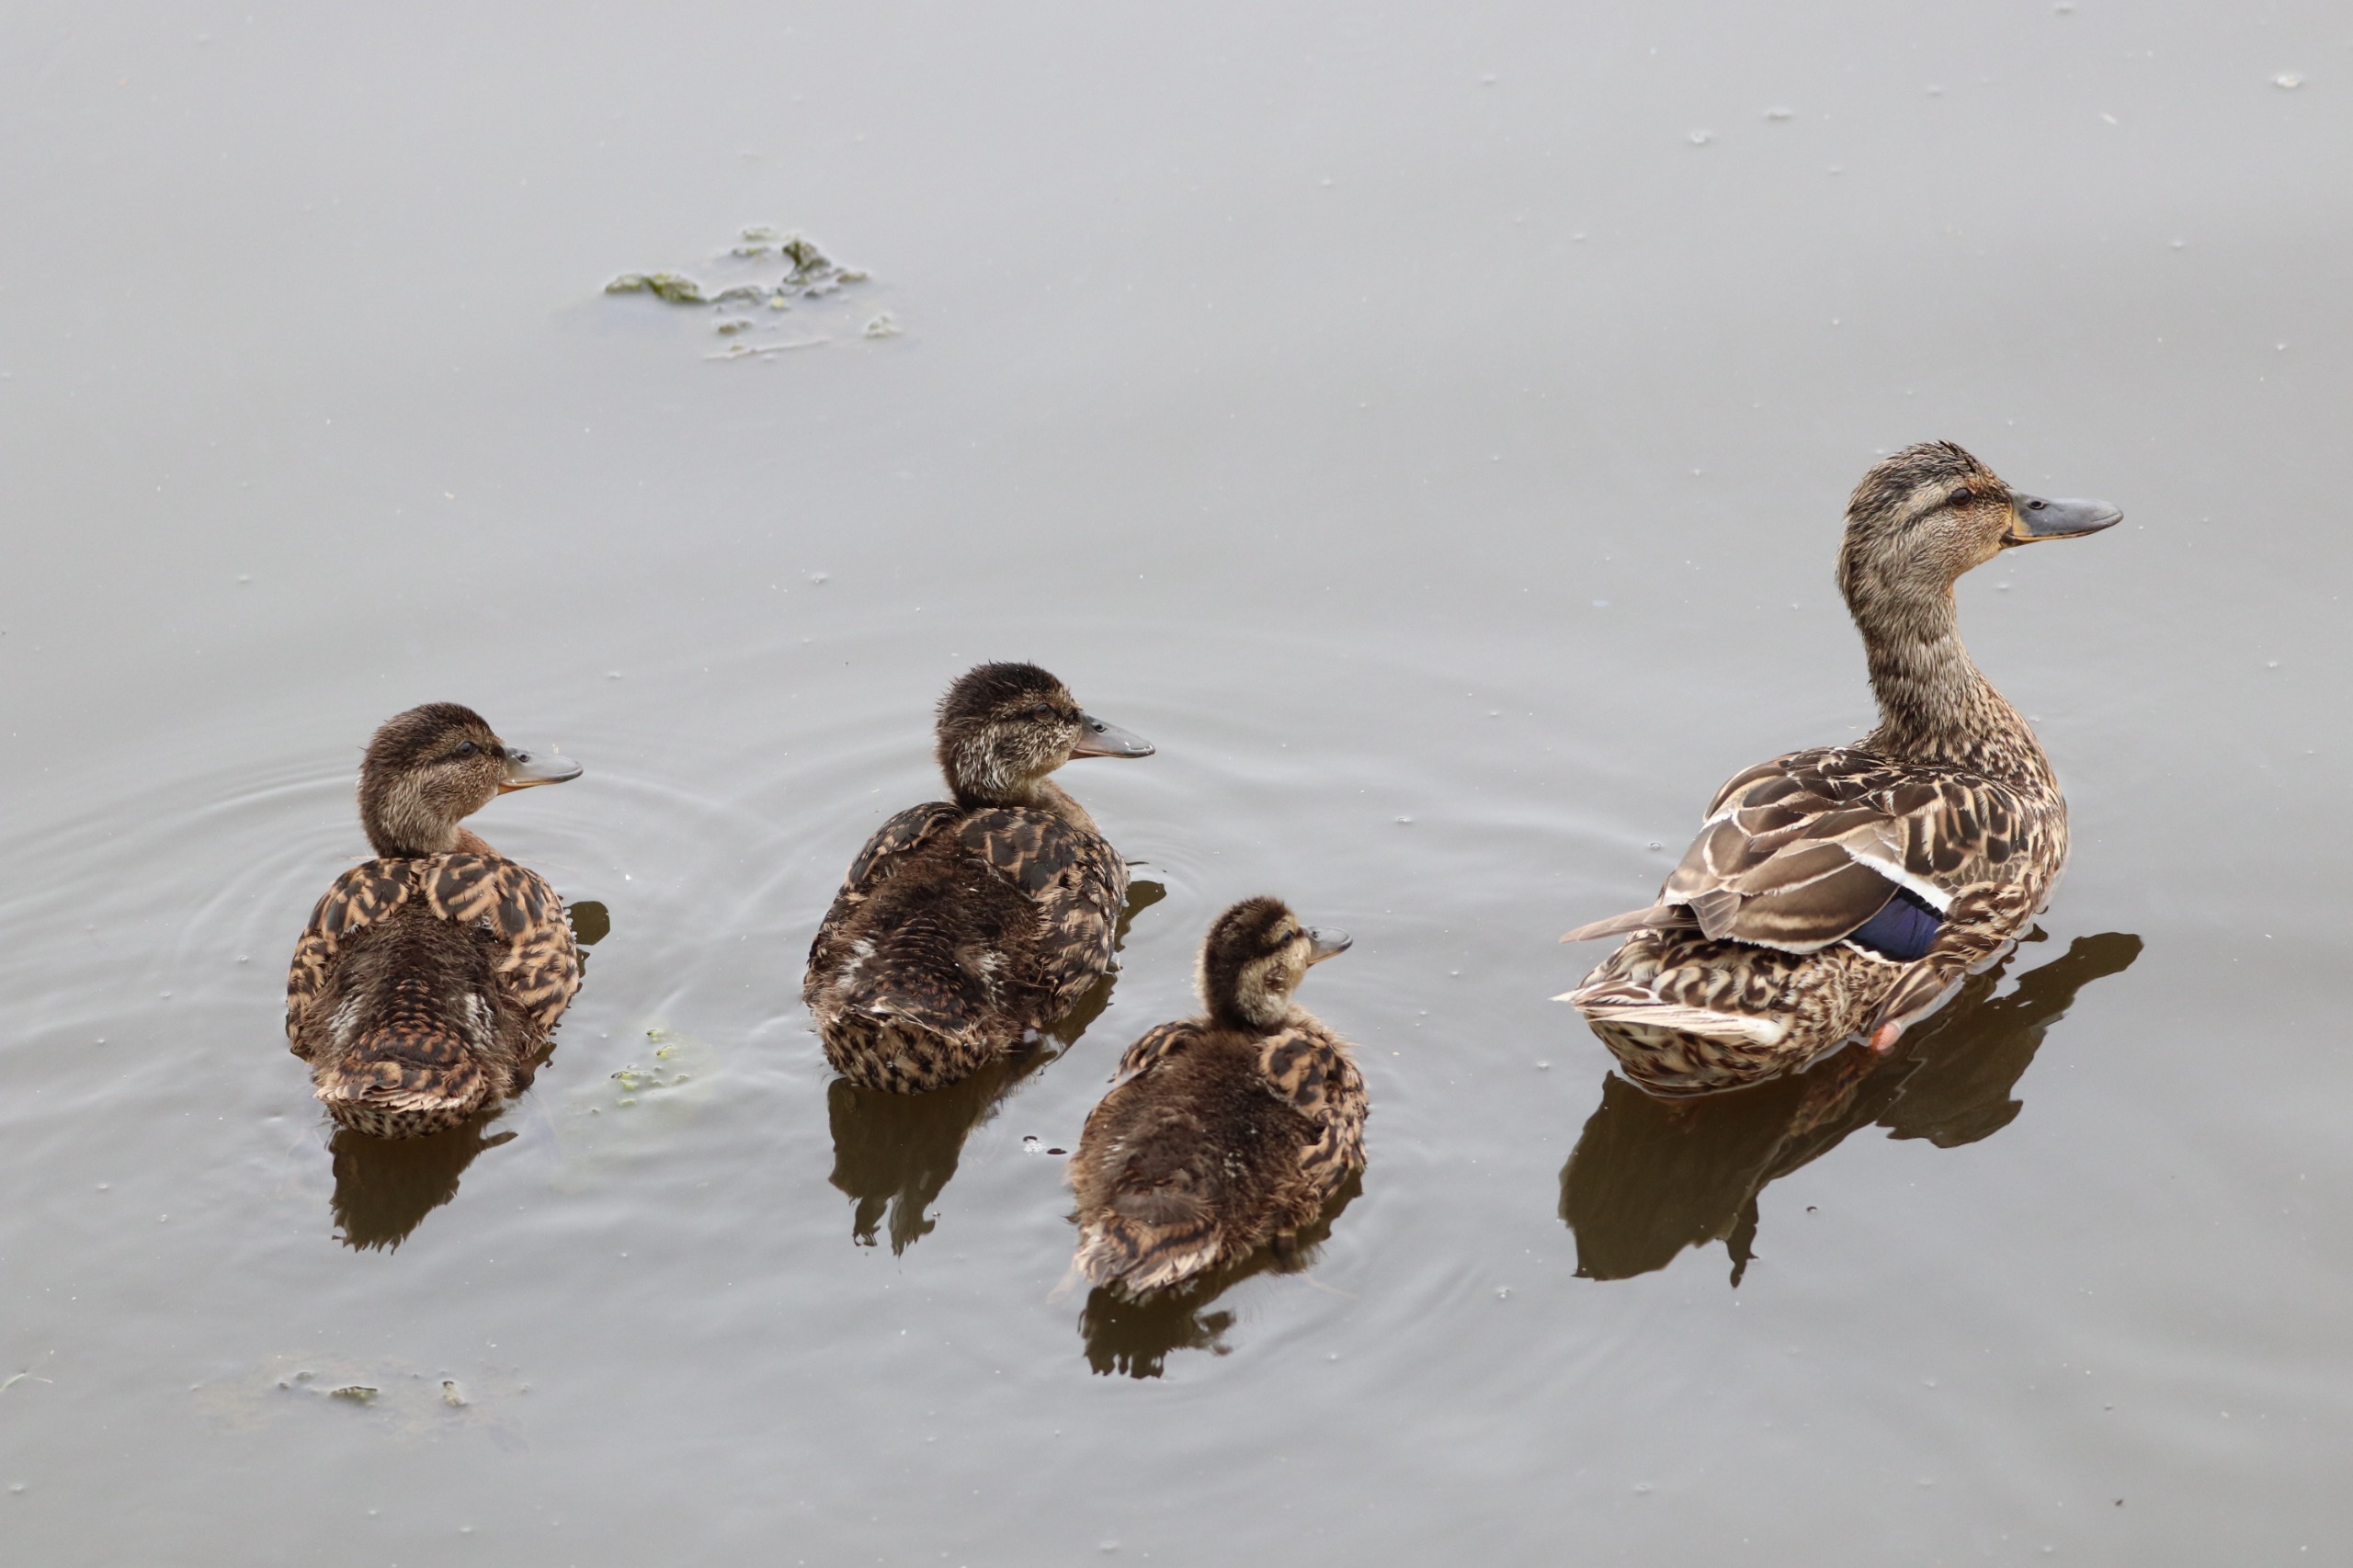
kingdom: Animalia
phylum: Chordata
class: Aves
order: Anseriformes
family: Anatidae
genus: Anas
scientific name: Anas platyrhynchos
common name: Gråand
